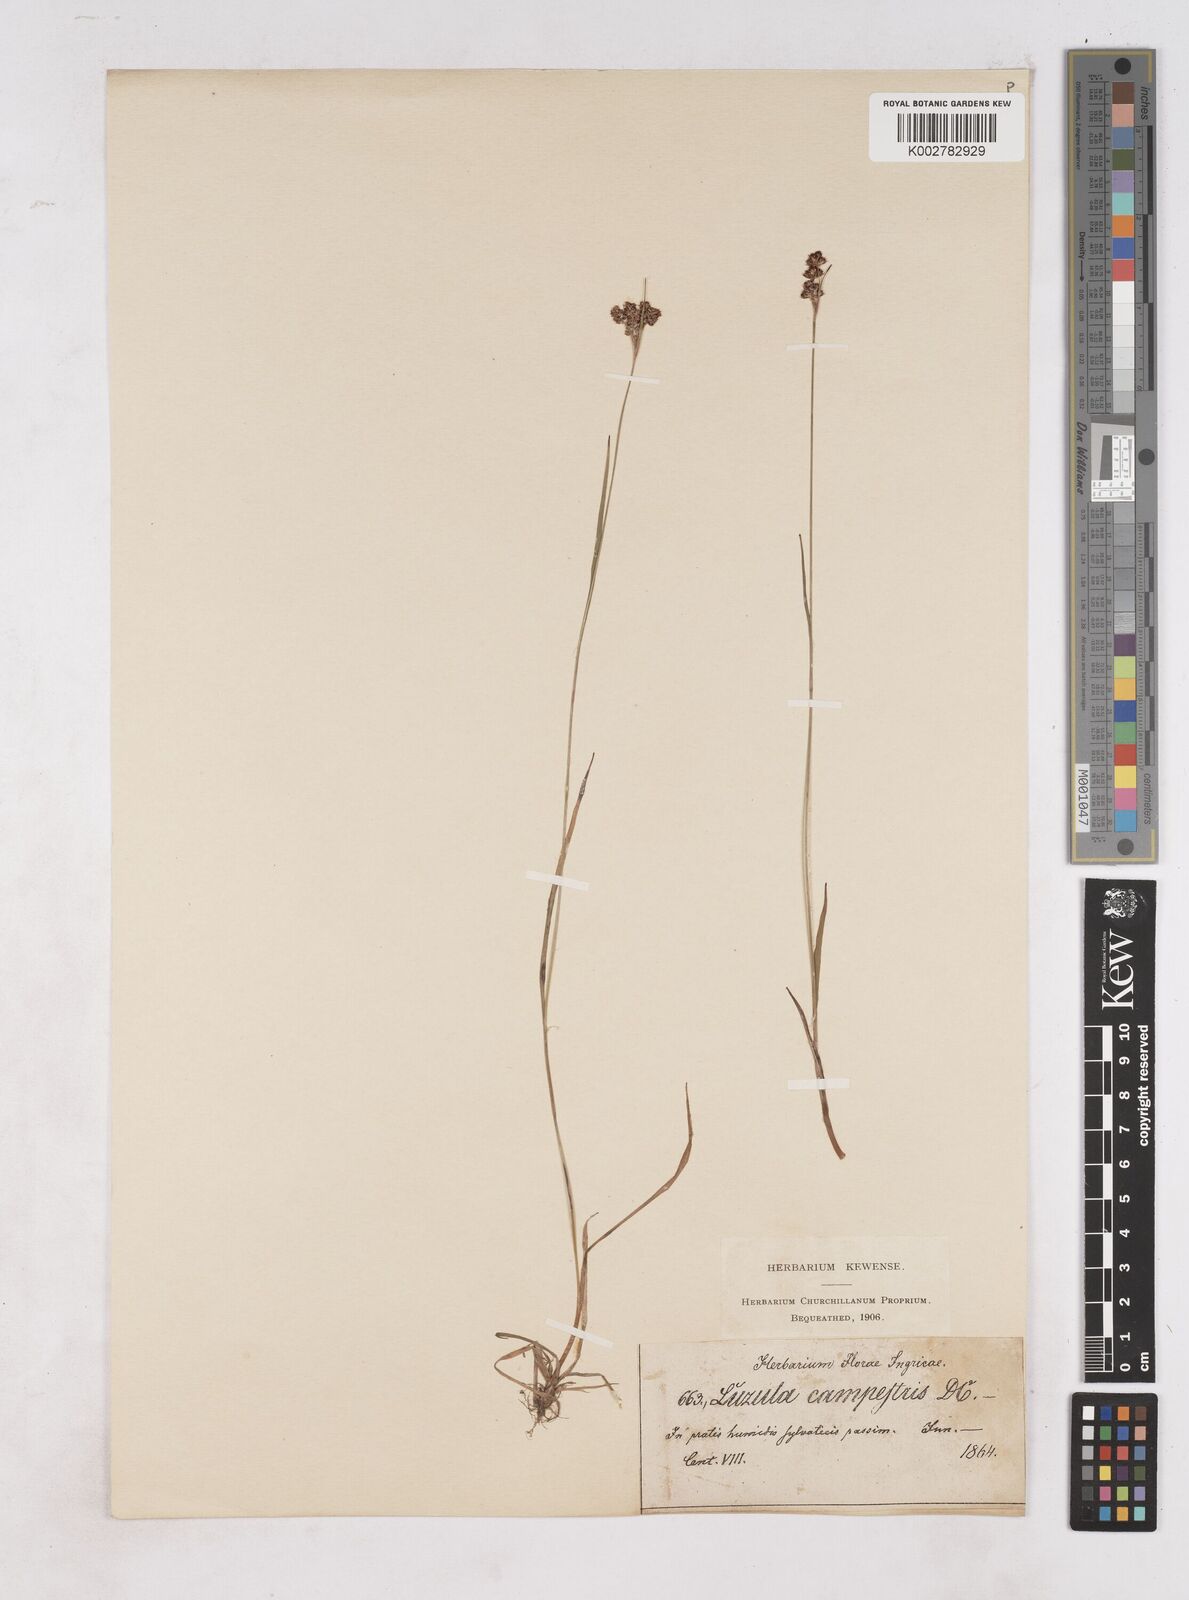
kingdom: Plantae
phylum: Tracheophyta
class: Liliopsida
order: Poales
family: Juncaceae
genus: Luzula
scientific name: Luzula campestris
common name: Field wood-rush
